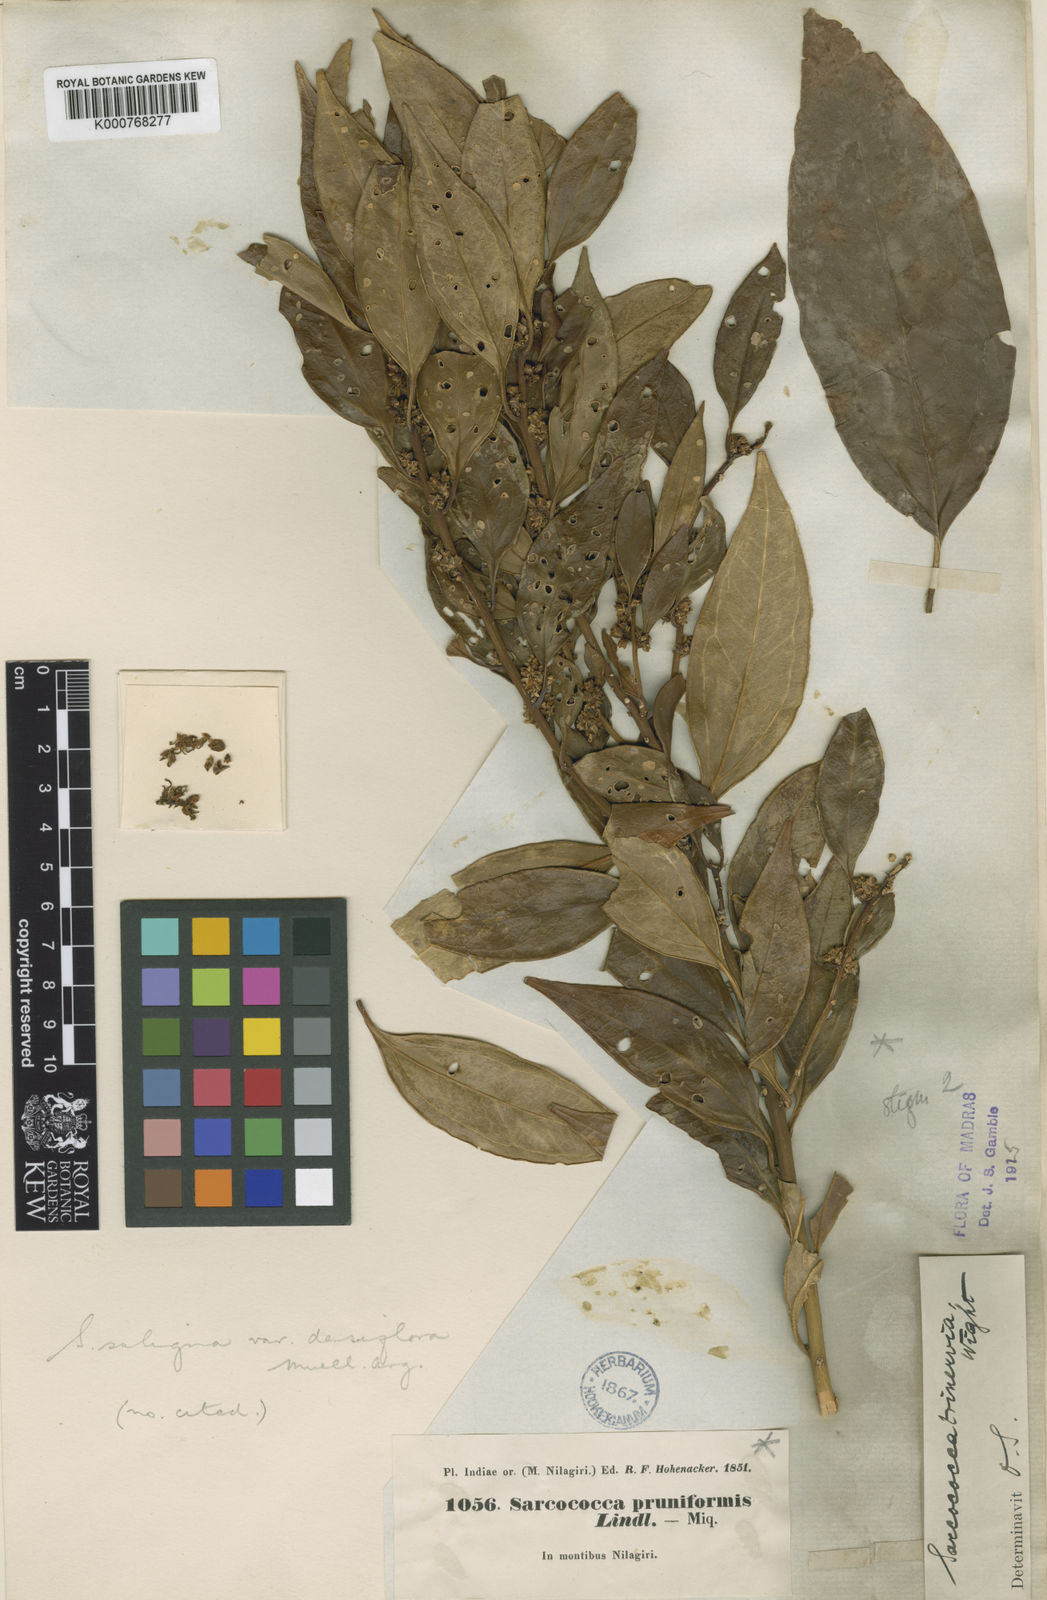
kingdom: Plantae
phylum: Tracheophyta
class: Magnoliopsida
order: Buxales
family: Buxaceae
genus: Sarcococca
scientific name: Sarcococca coriacea
